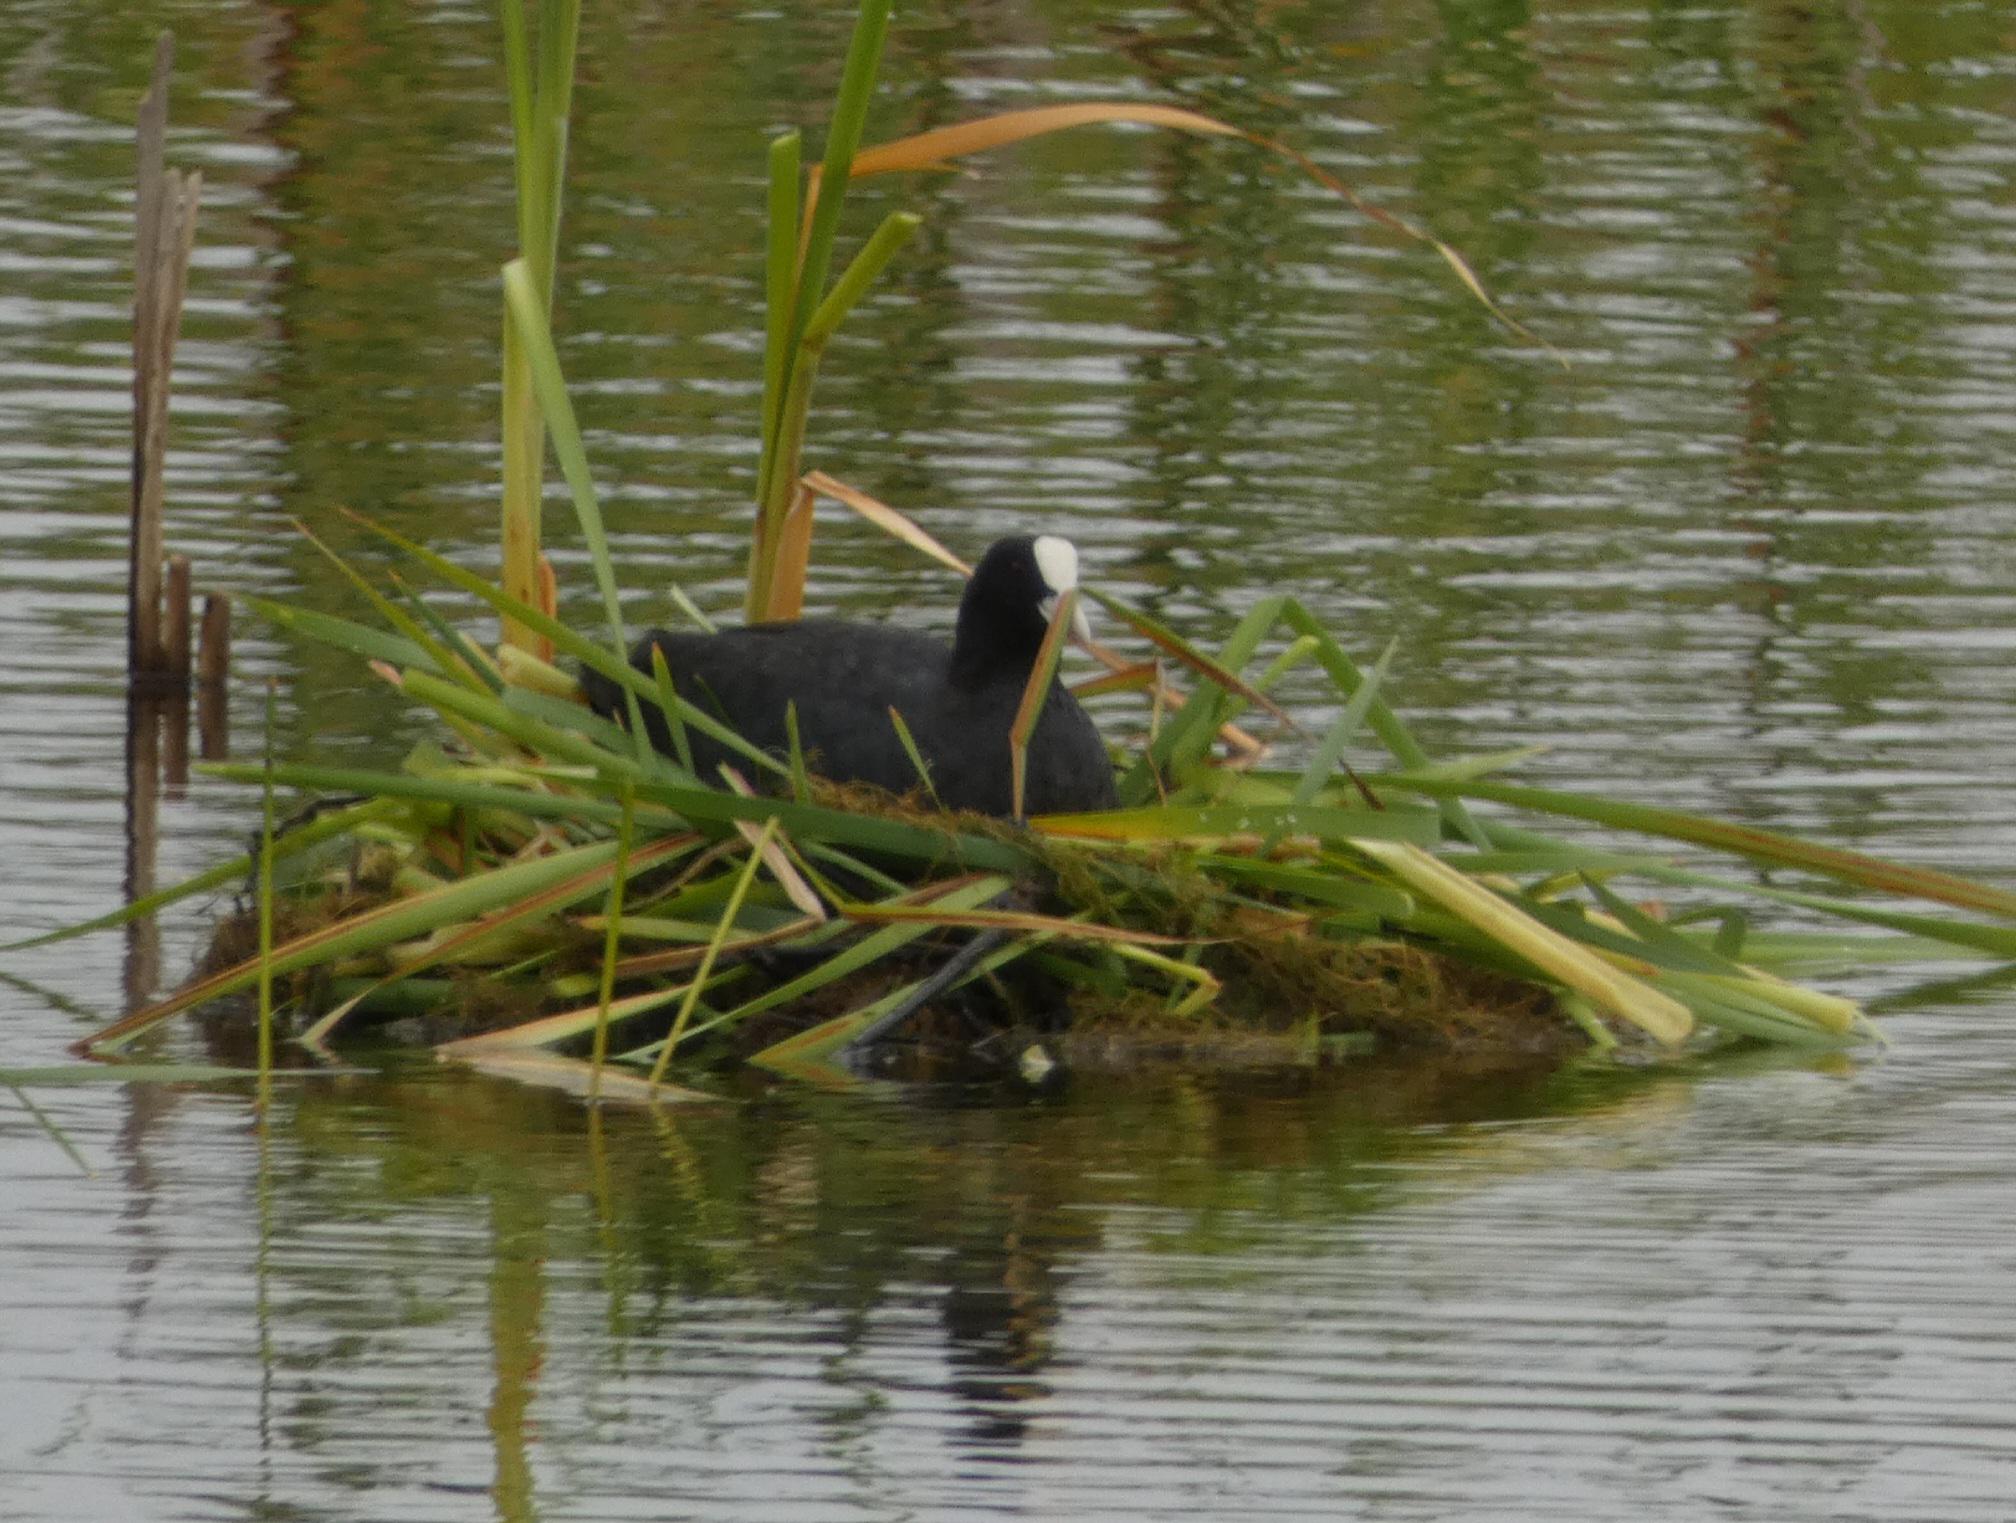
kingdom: Animalia
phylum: Chordata
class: Aves
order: Gruiformes
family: Rallidae
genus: Fulica
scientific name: Fulica atra
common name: Blishøne
